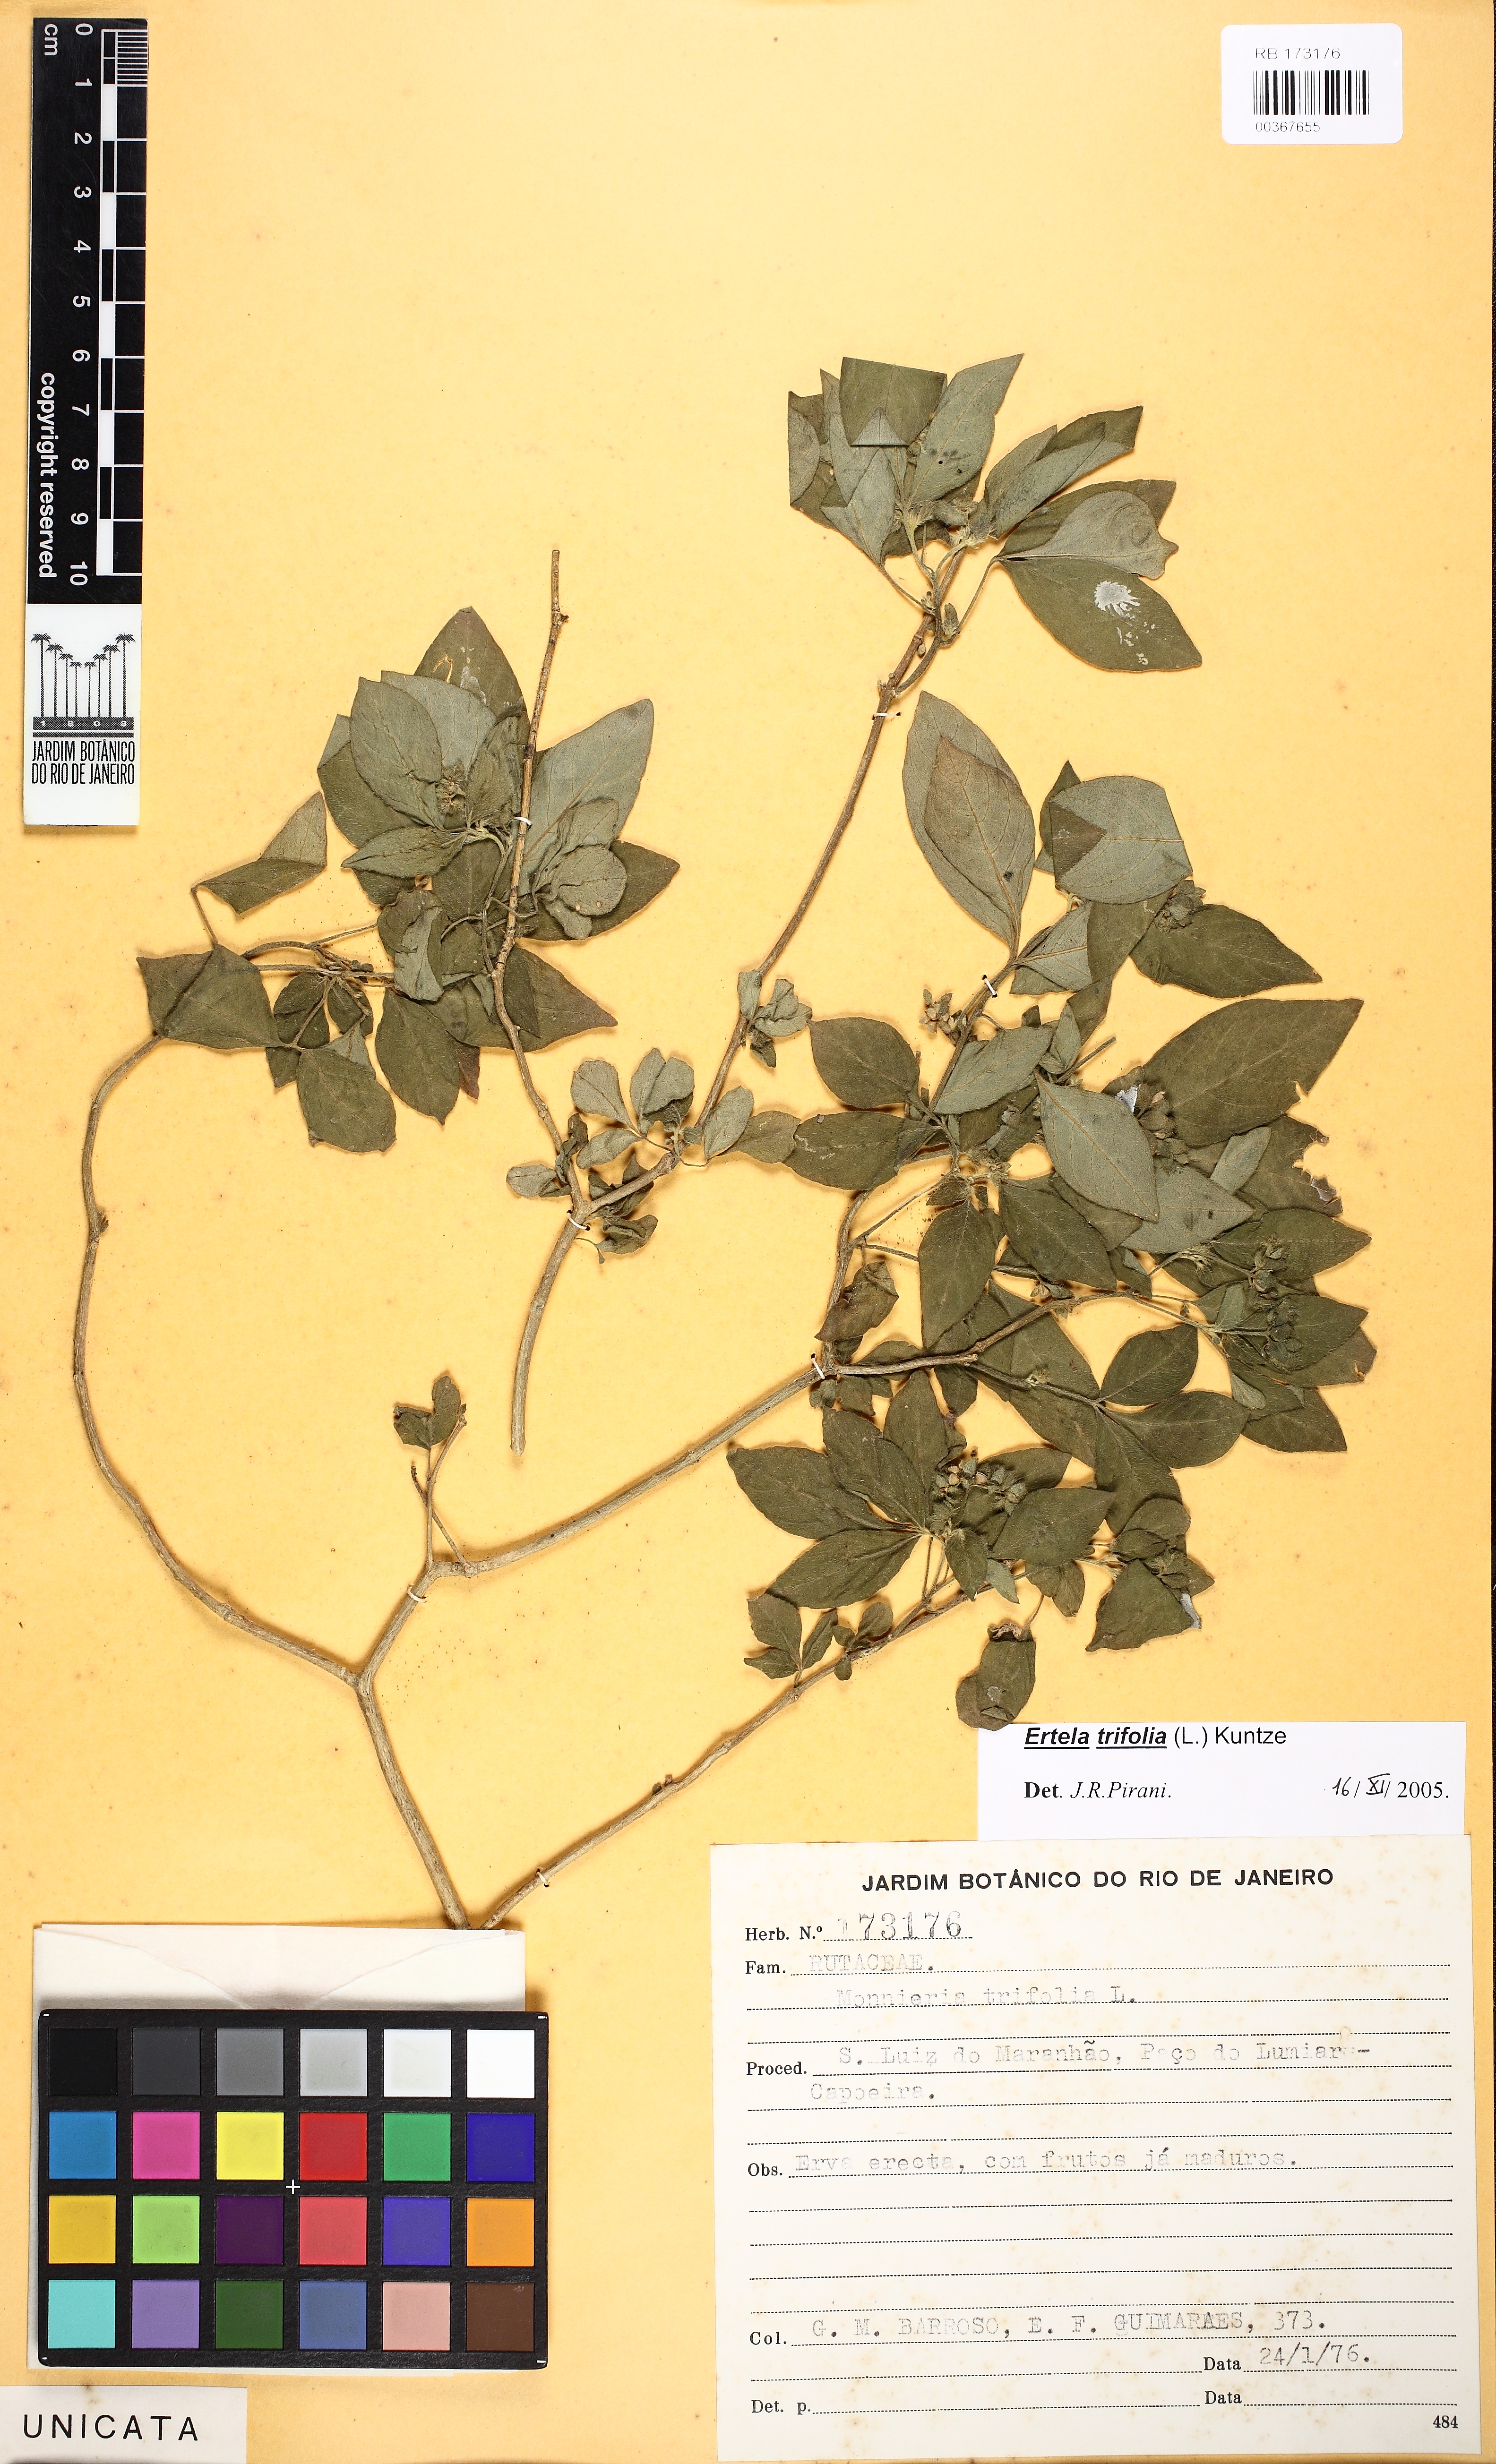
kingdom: Plantae
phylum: Tracheophyta
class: Magnoliopsida
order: Sapindales
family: Rutaceae
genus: Ertela
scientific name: Ertela trifolia
